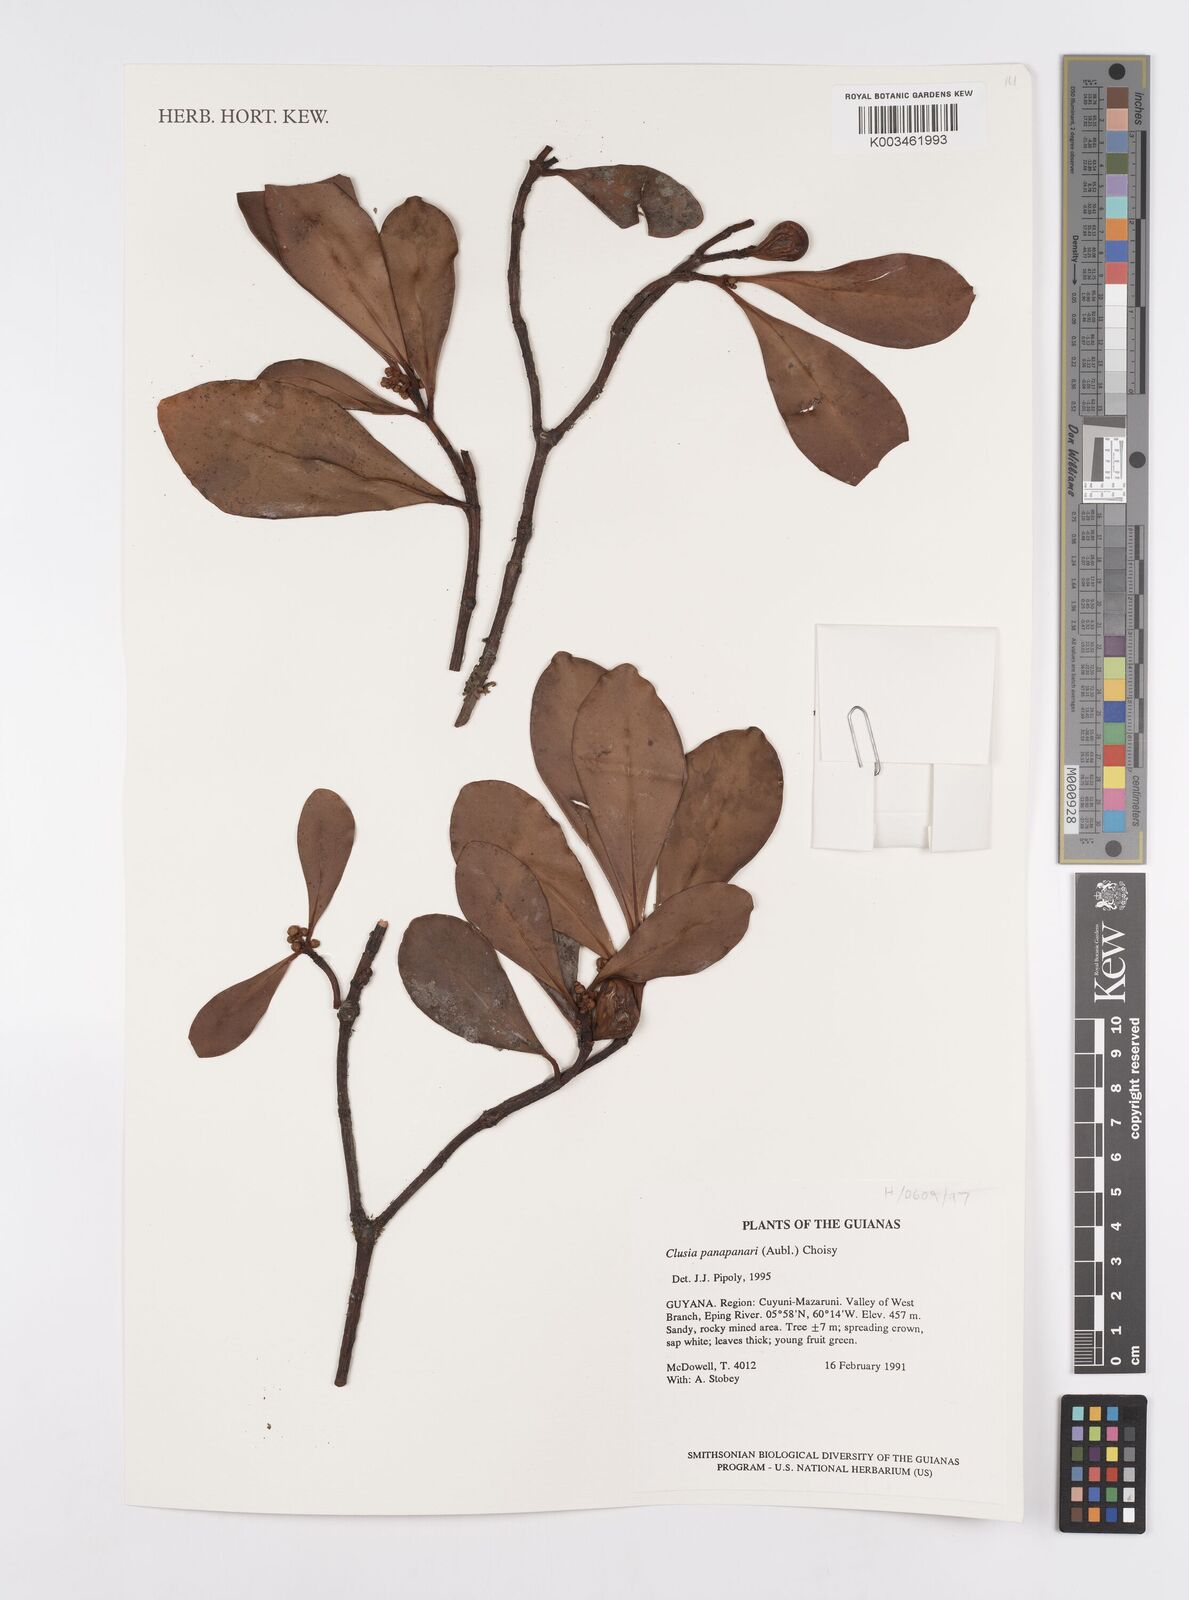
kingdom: Plantae
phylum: Tracheophyta
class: Magnoliopsida
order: Malpighiales
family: Clusiaceae
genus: Clusia
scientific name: Clusia panapanari
